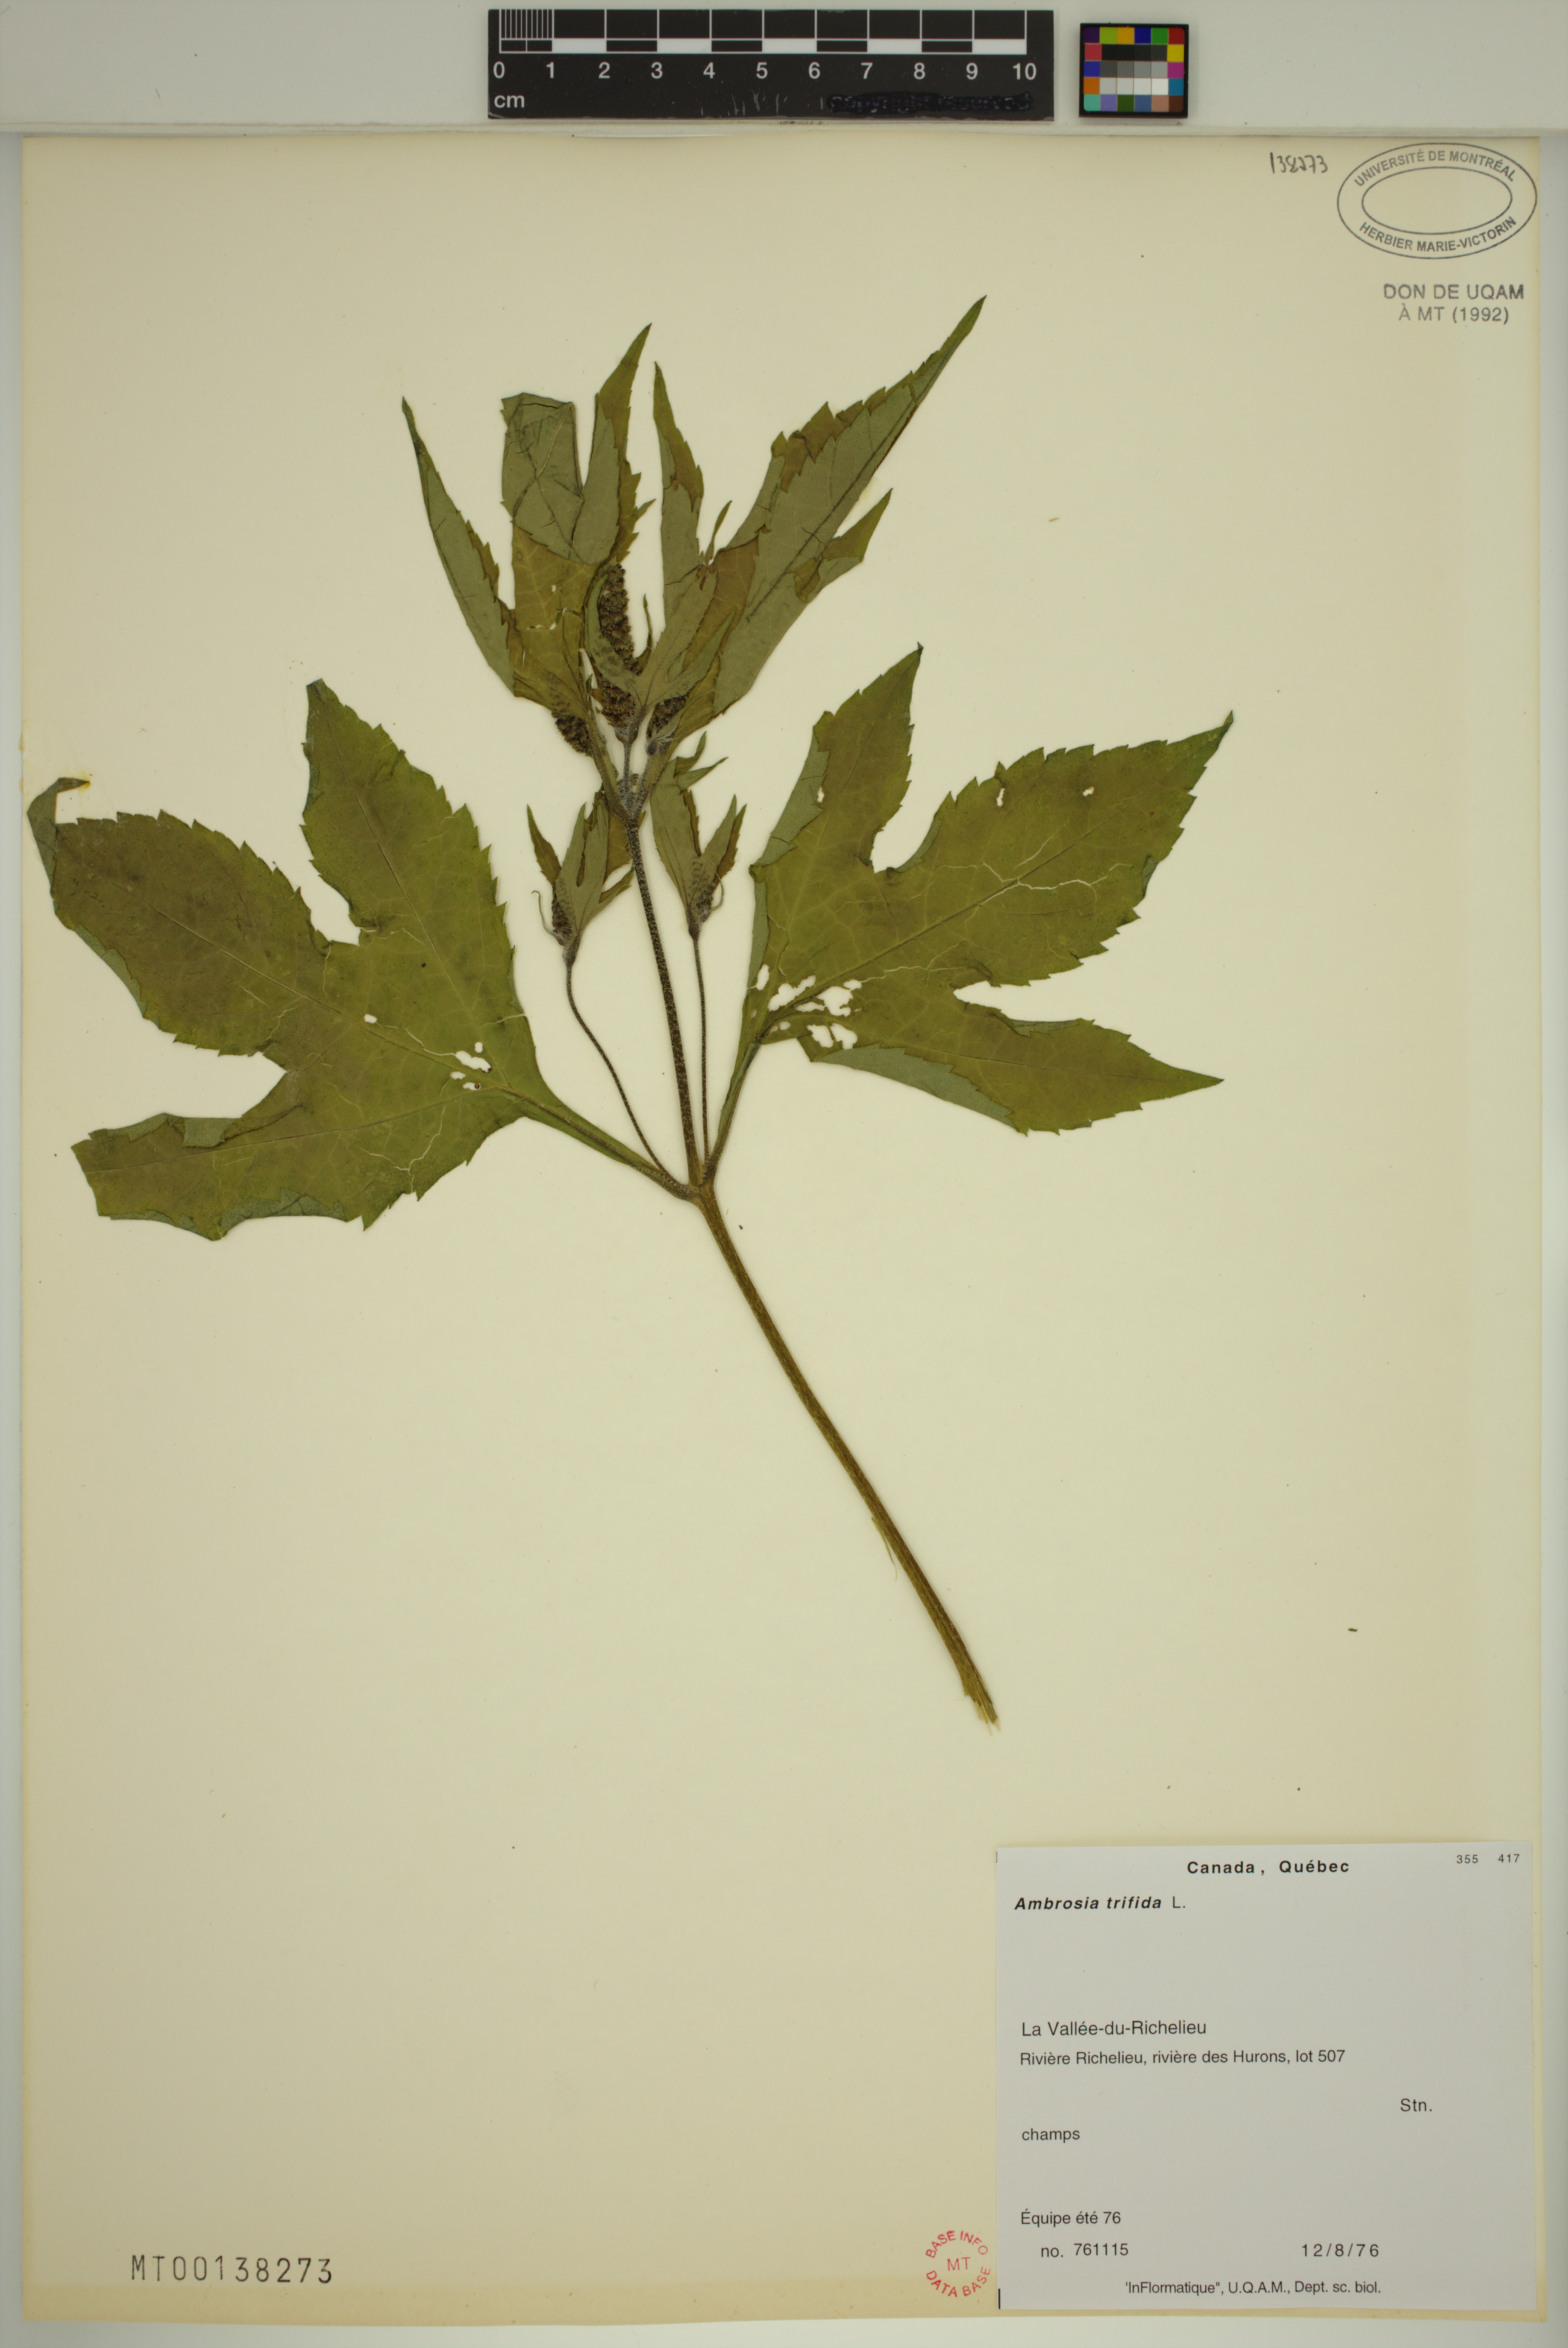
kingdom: Plantae
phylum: Tracheophyta
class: Magnoliopsida
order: Asterales
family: Asteraceae
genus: Ambrosia
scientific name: Ambrosia trifida
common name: Giant ragweed
